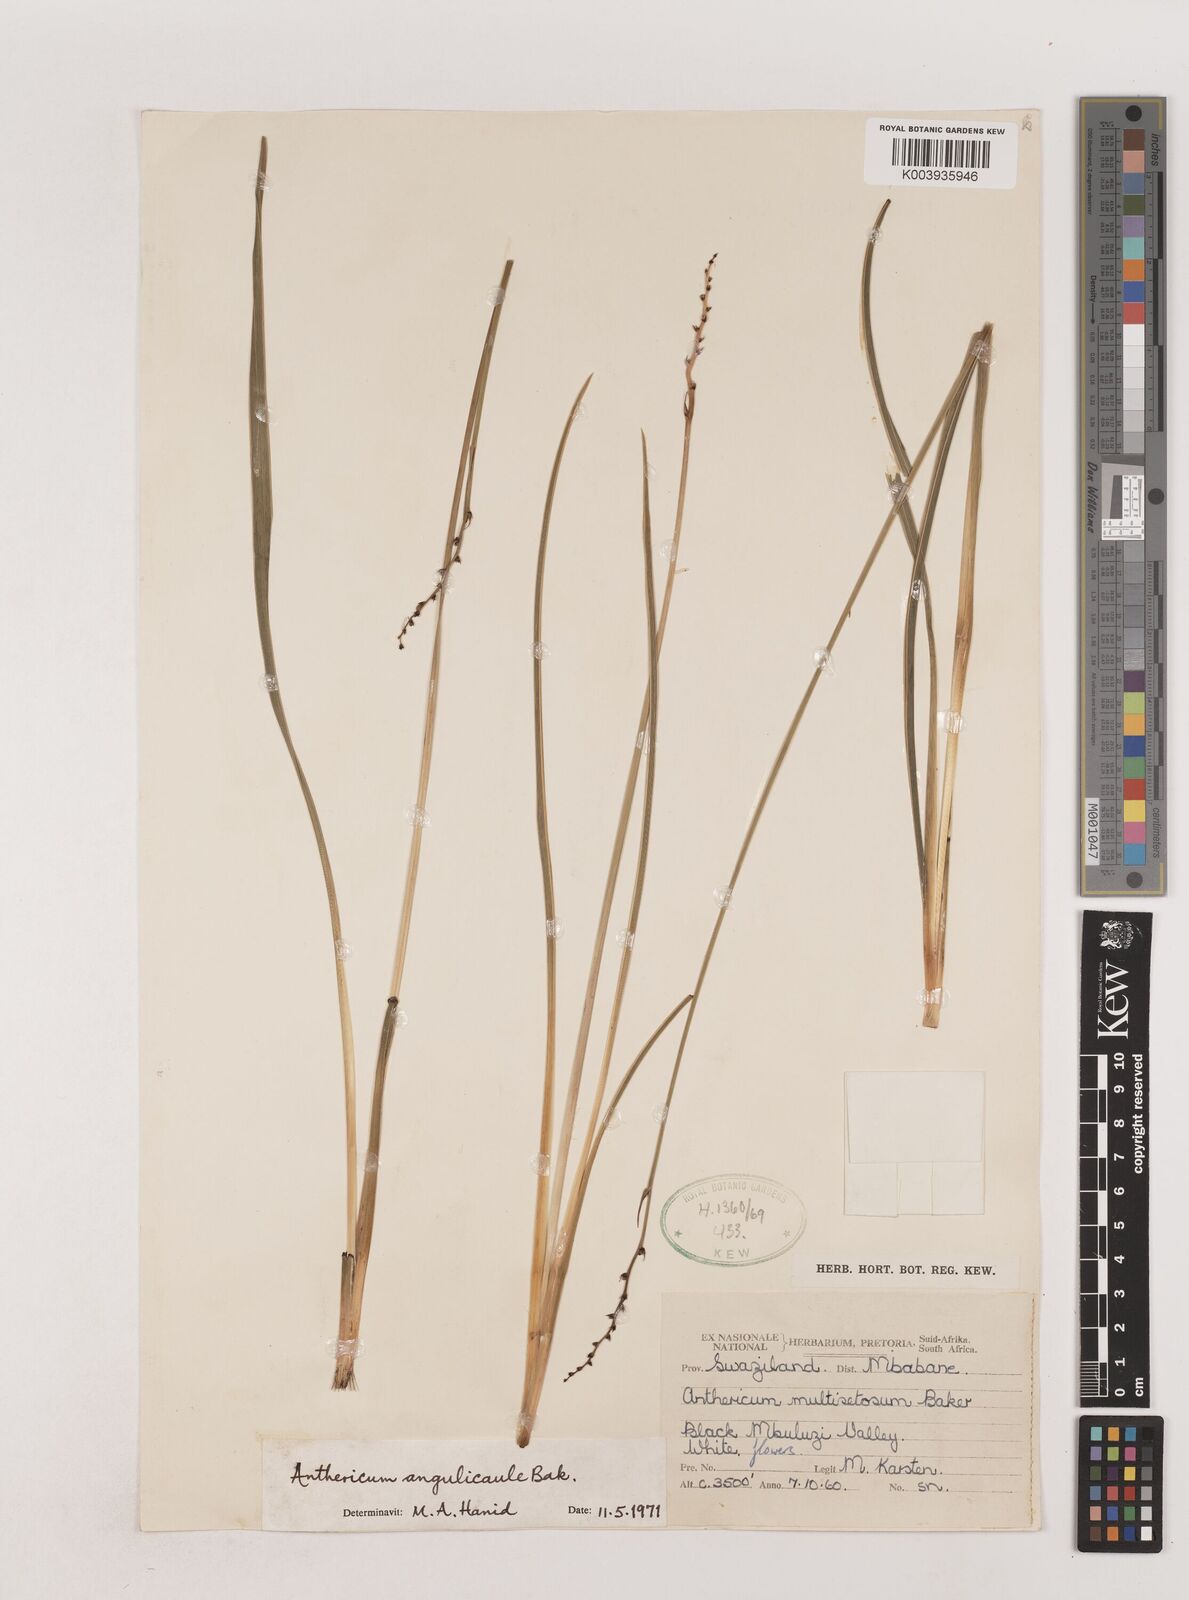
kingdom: Plantae
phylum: Tracheophyta
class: Liliopsida
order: Asparagales
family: Asparagaceae
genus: Chlorophytum
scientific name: Chlorophytum angulicaule
